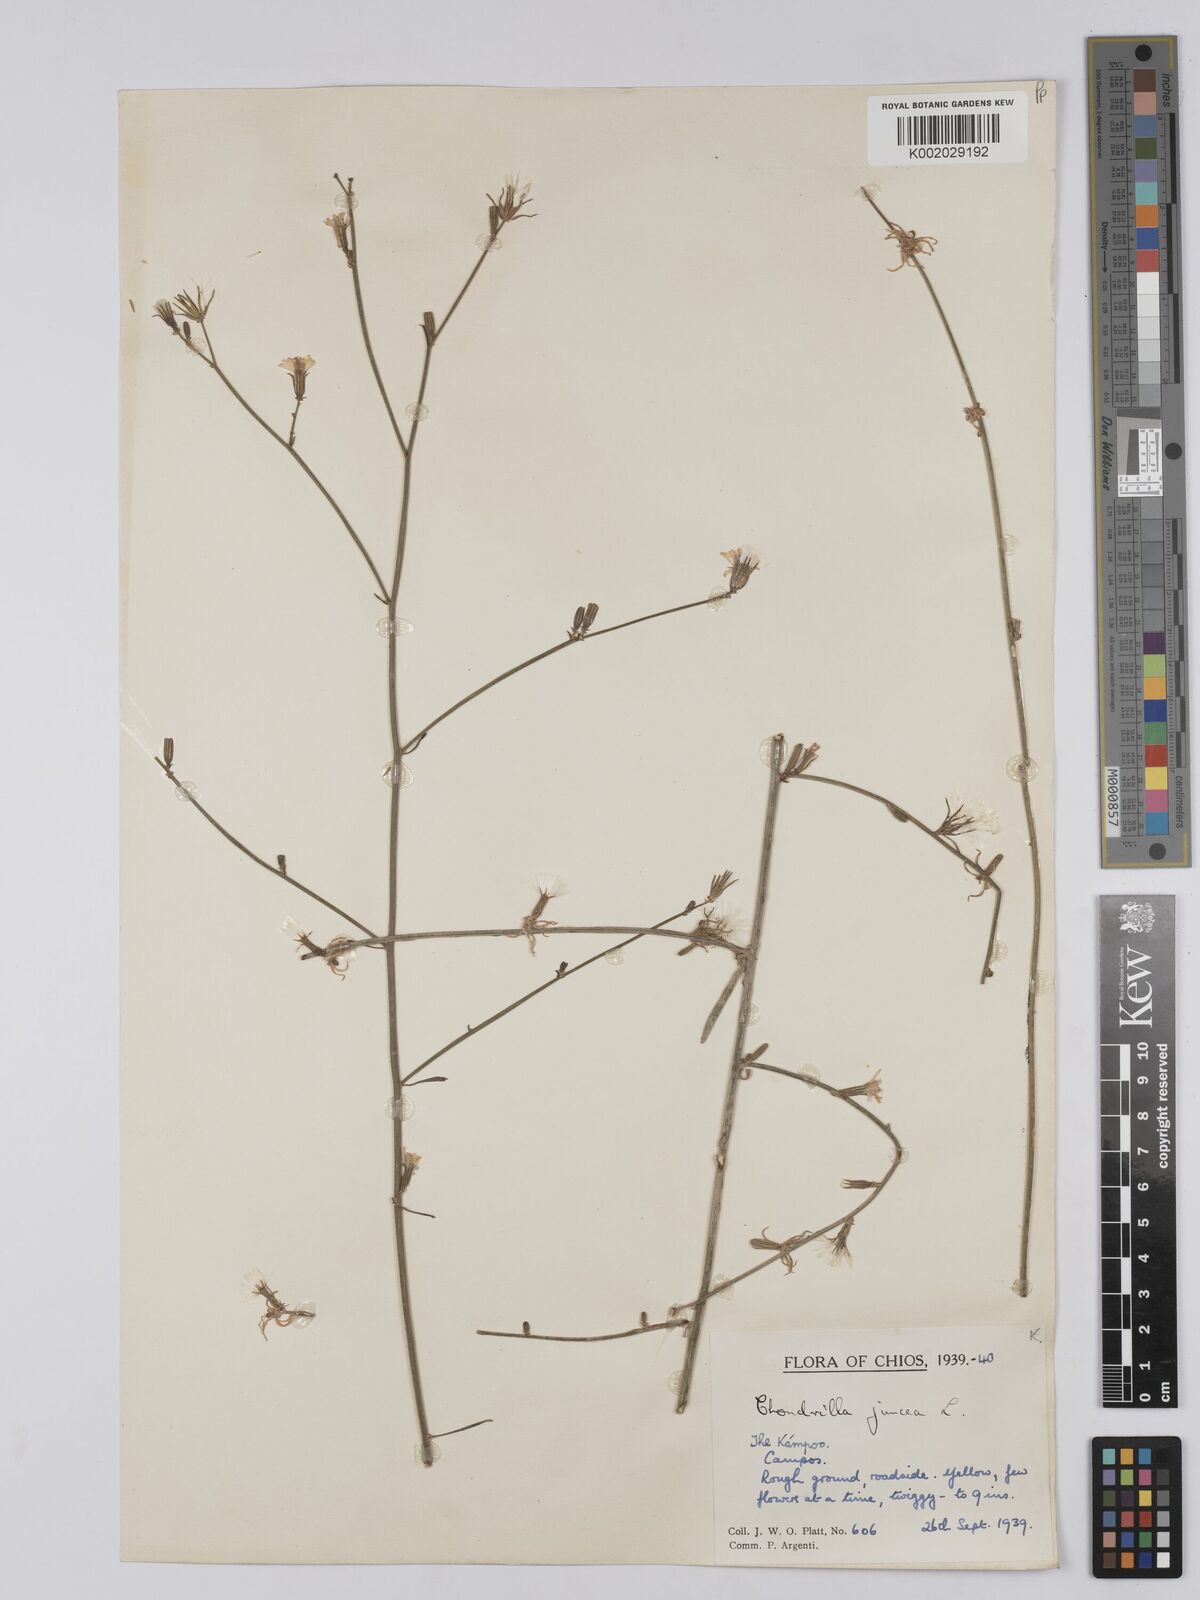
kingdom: Plantae
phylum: Tracheophyta
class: Magnoliopsida
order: Asterales
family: Asteraceae
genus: Chondrilla
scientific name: Chondrilla juncea
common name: Skeleton weed
